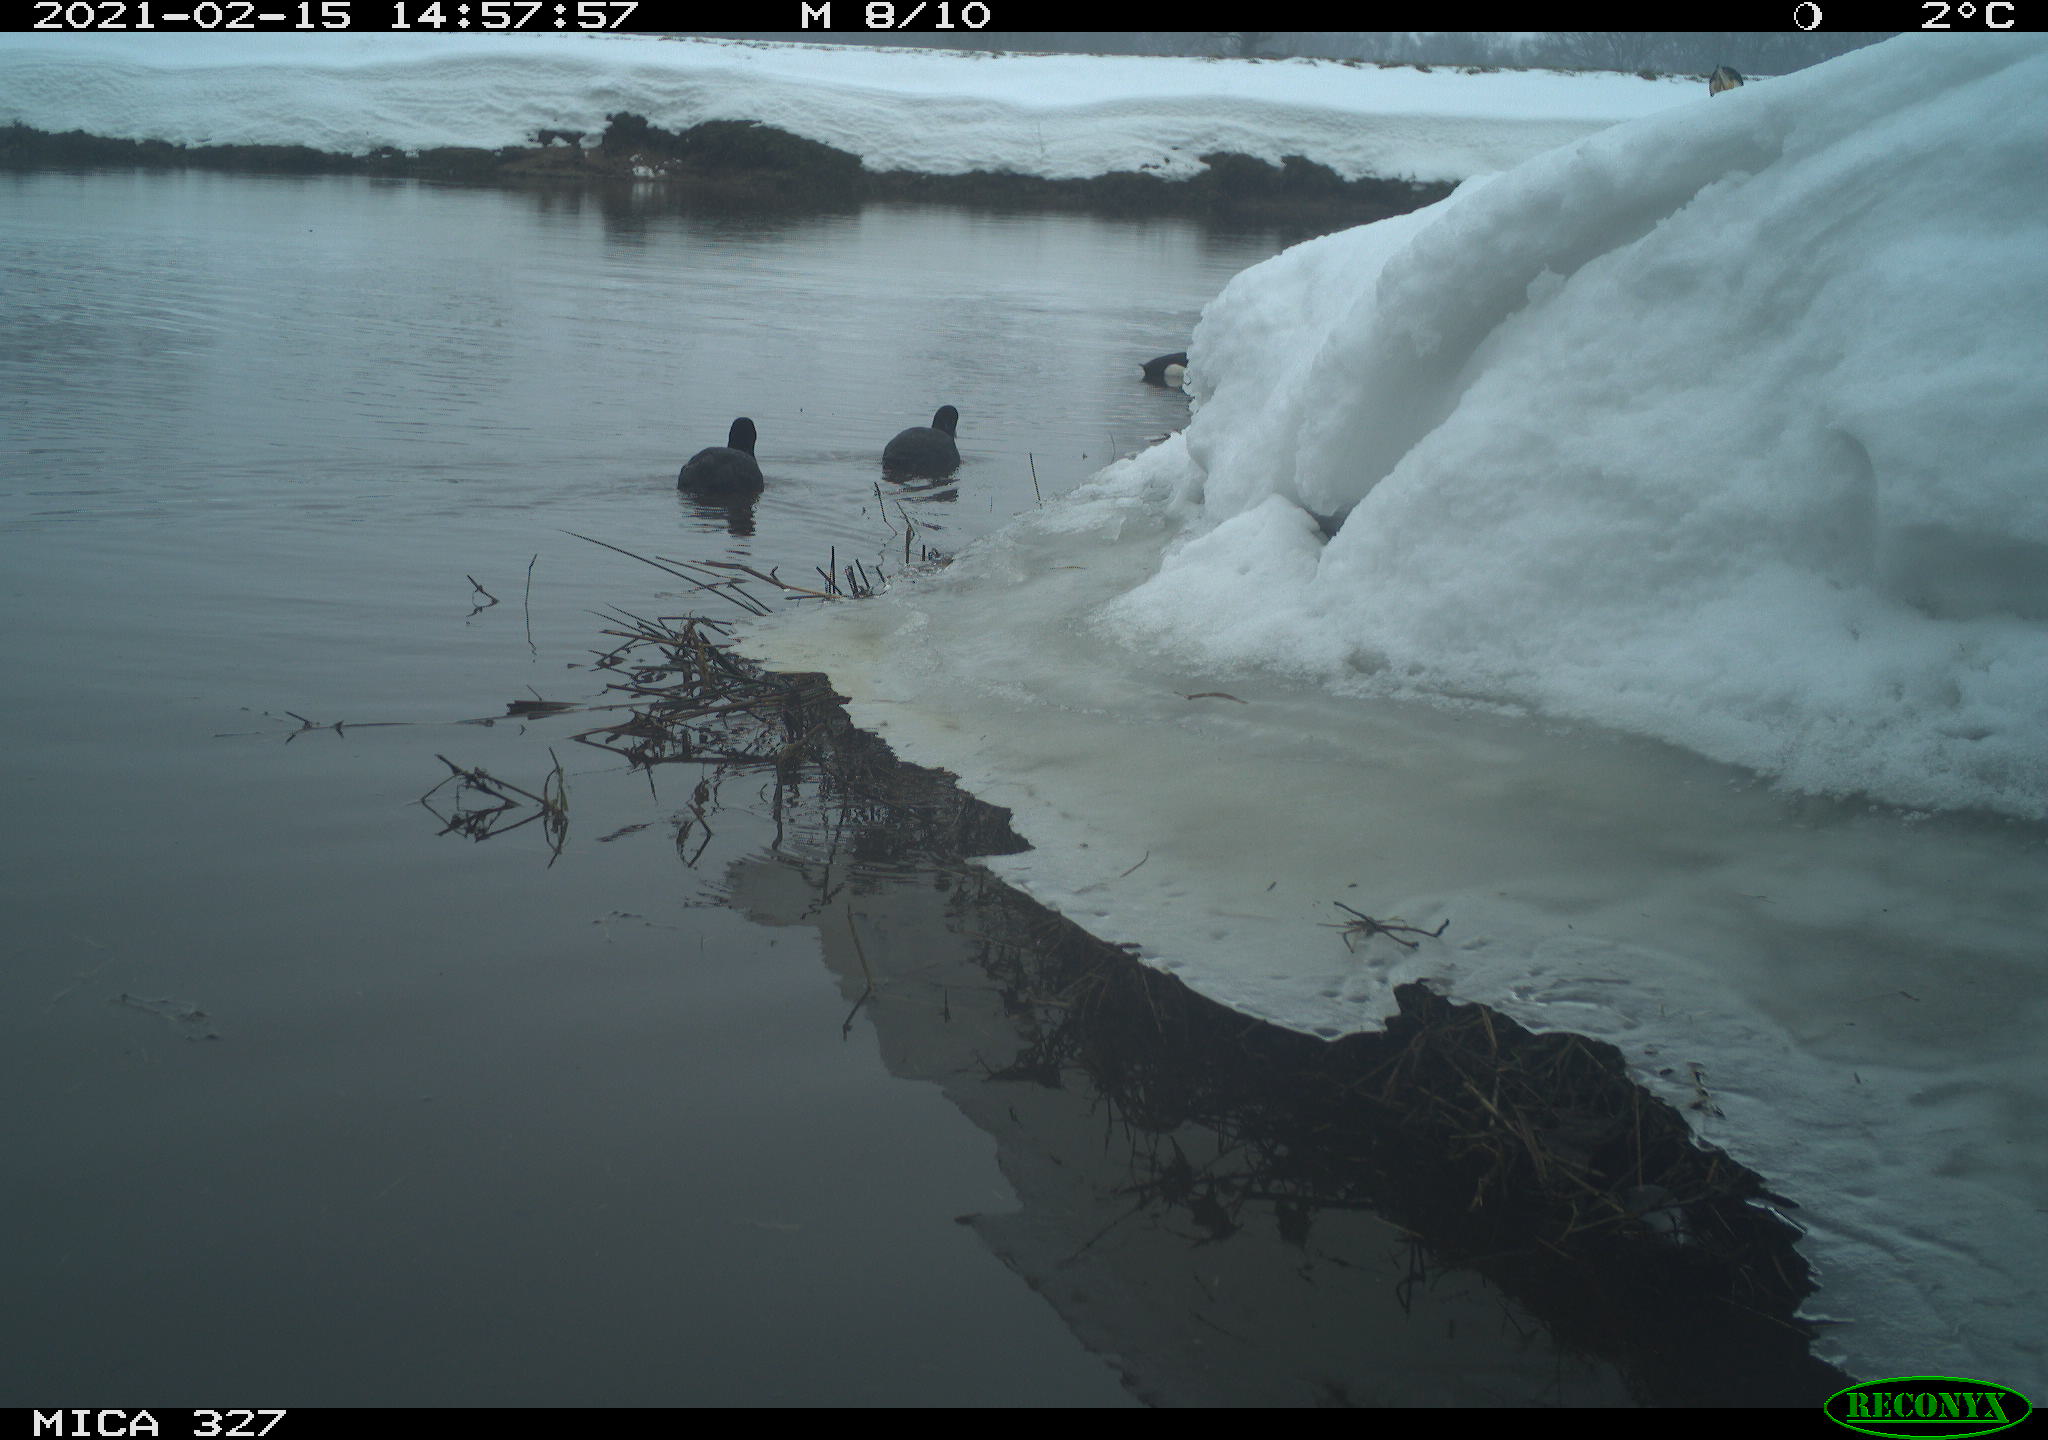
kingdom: Animalia
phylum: Chordata
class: Aves
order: Anseriformes
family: Anatidae
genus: Anas
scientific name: Anas
